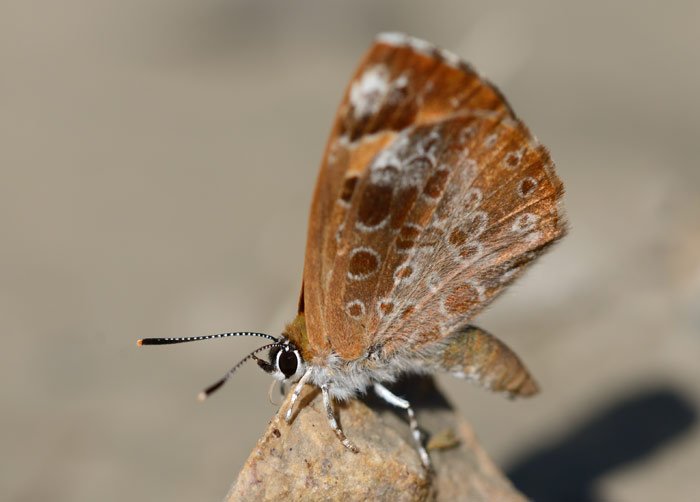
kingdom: Animalia
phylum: Arthropoda
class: Insecta
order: Lepidoptera
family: Lycaenidae
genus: Feniseca
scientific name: Feniseca tarquinius
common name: Harvester
